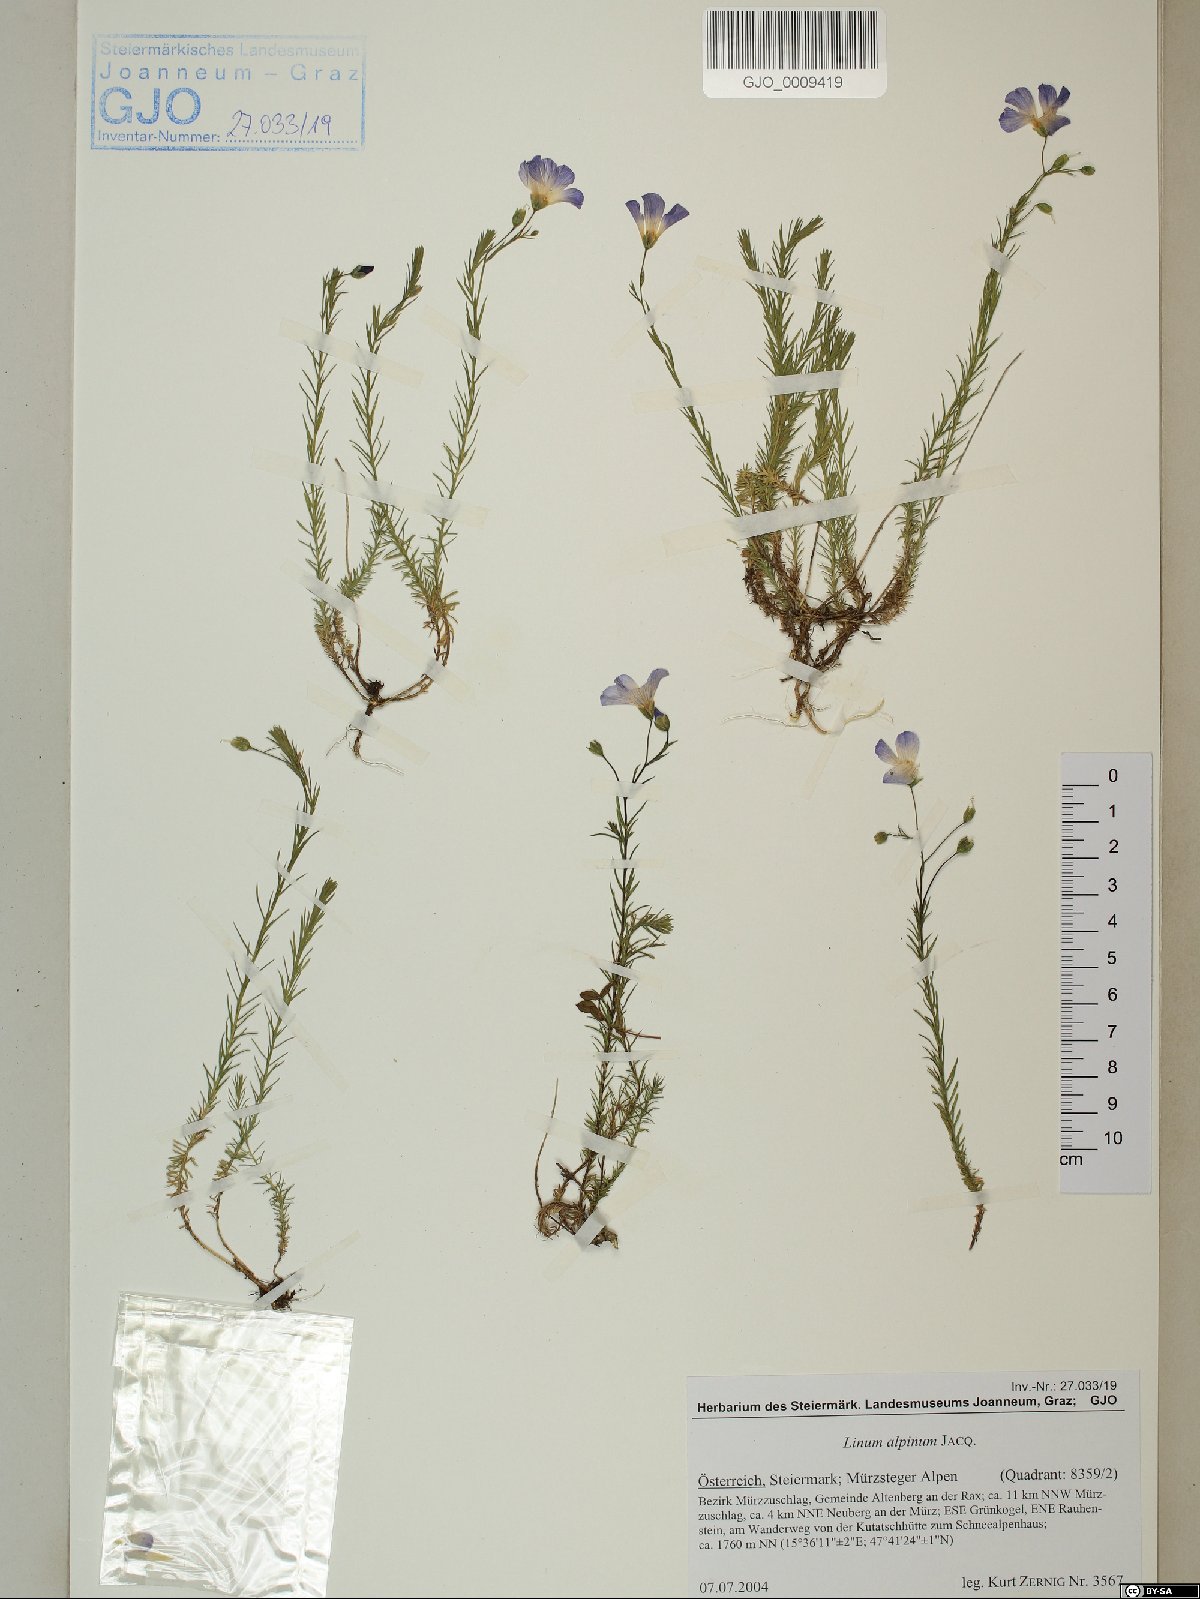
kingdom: Plantae
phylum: Tracheophyta
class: Magnoliopsida
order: Malpighiales
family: Linaceae
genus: Linum
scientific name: Linum alpinum
